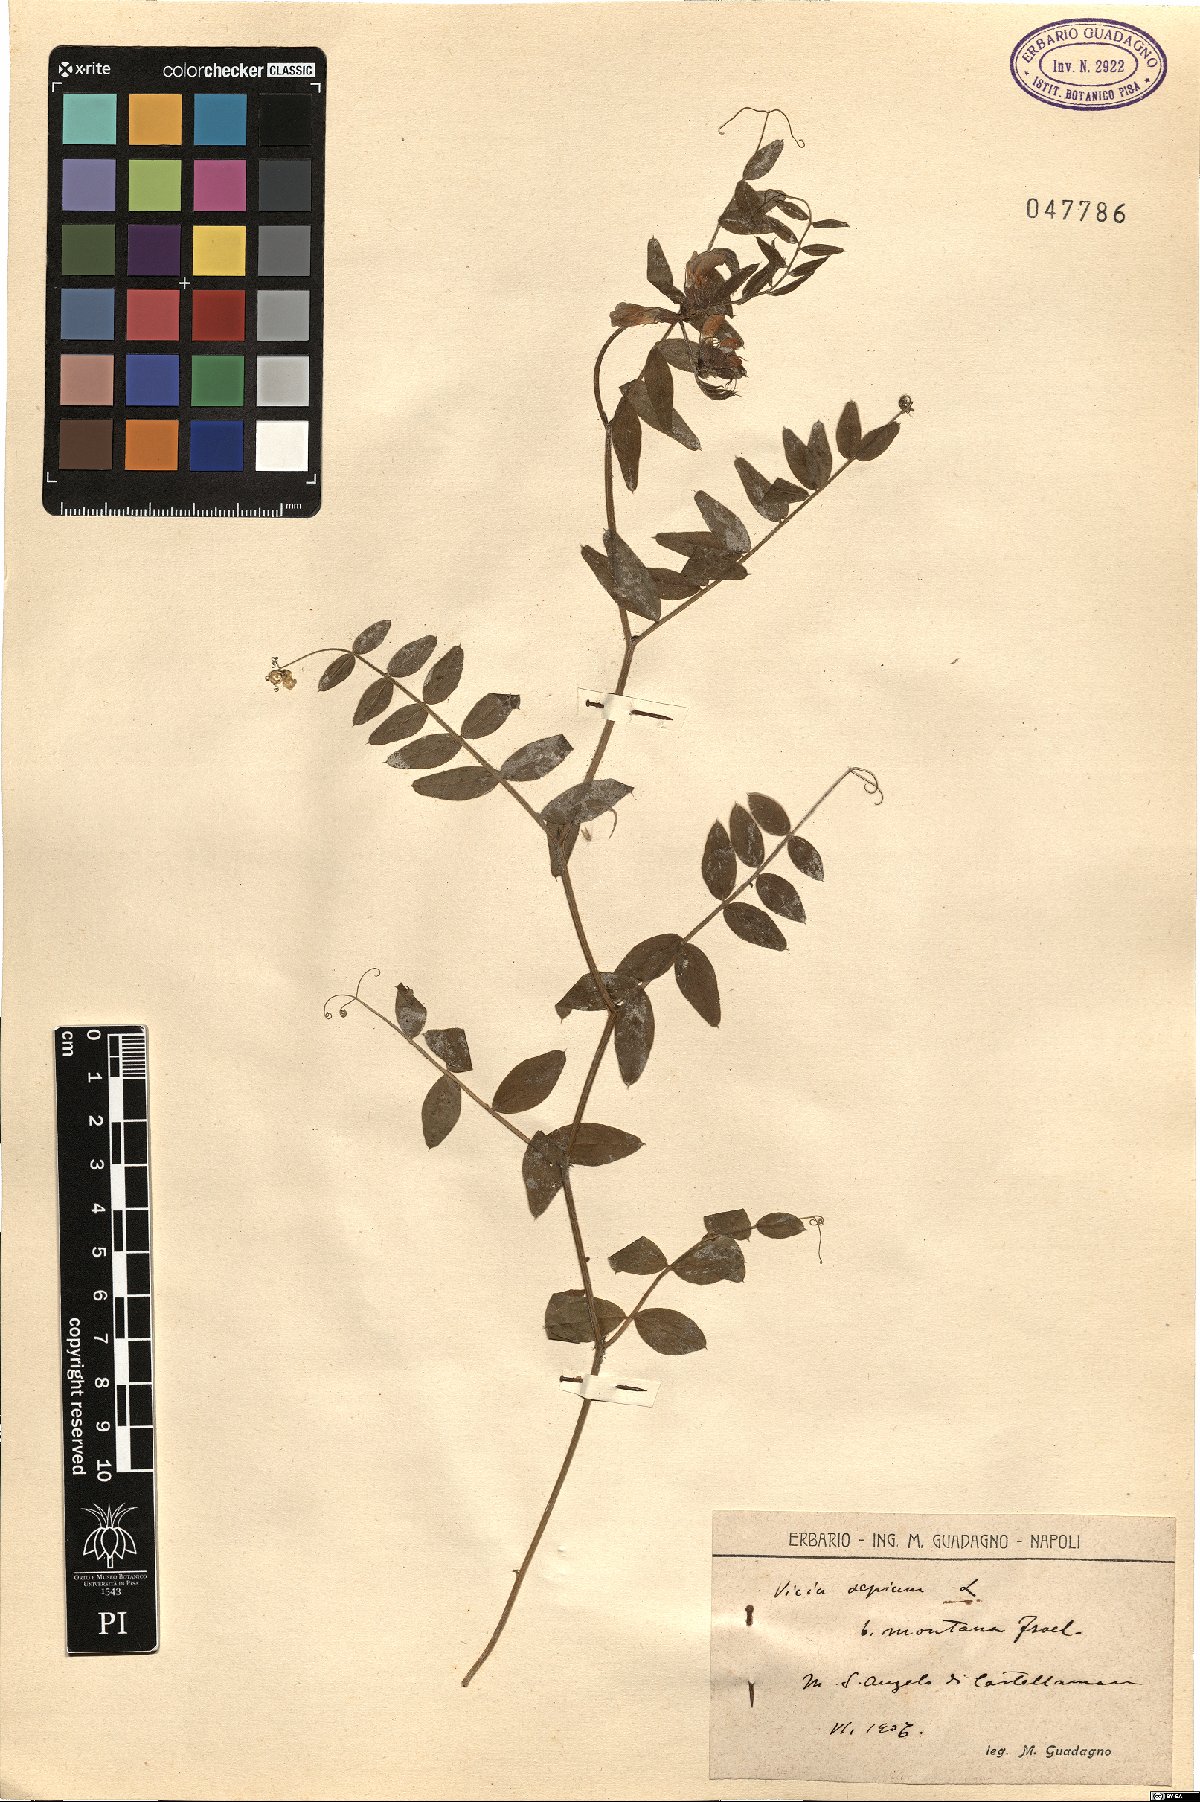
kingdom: Plantae
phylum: Tracheophyta
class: Magnoliopsida
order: Fabales
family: Fabaceae
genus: Vicia
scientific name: Vicia sepium
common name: Bush vetch
